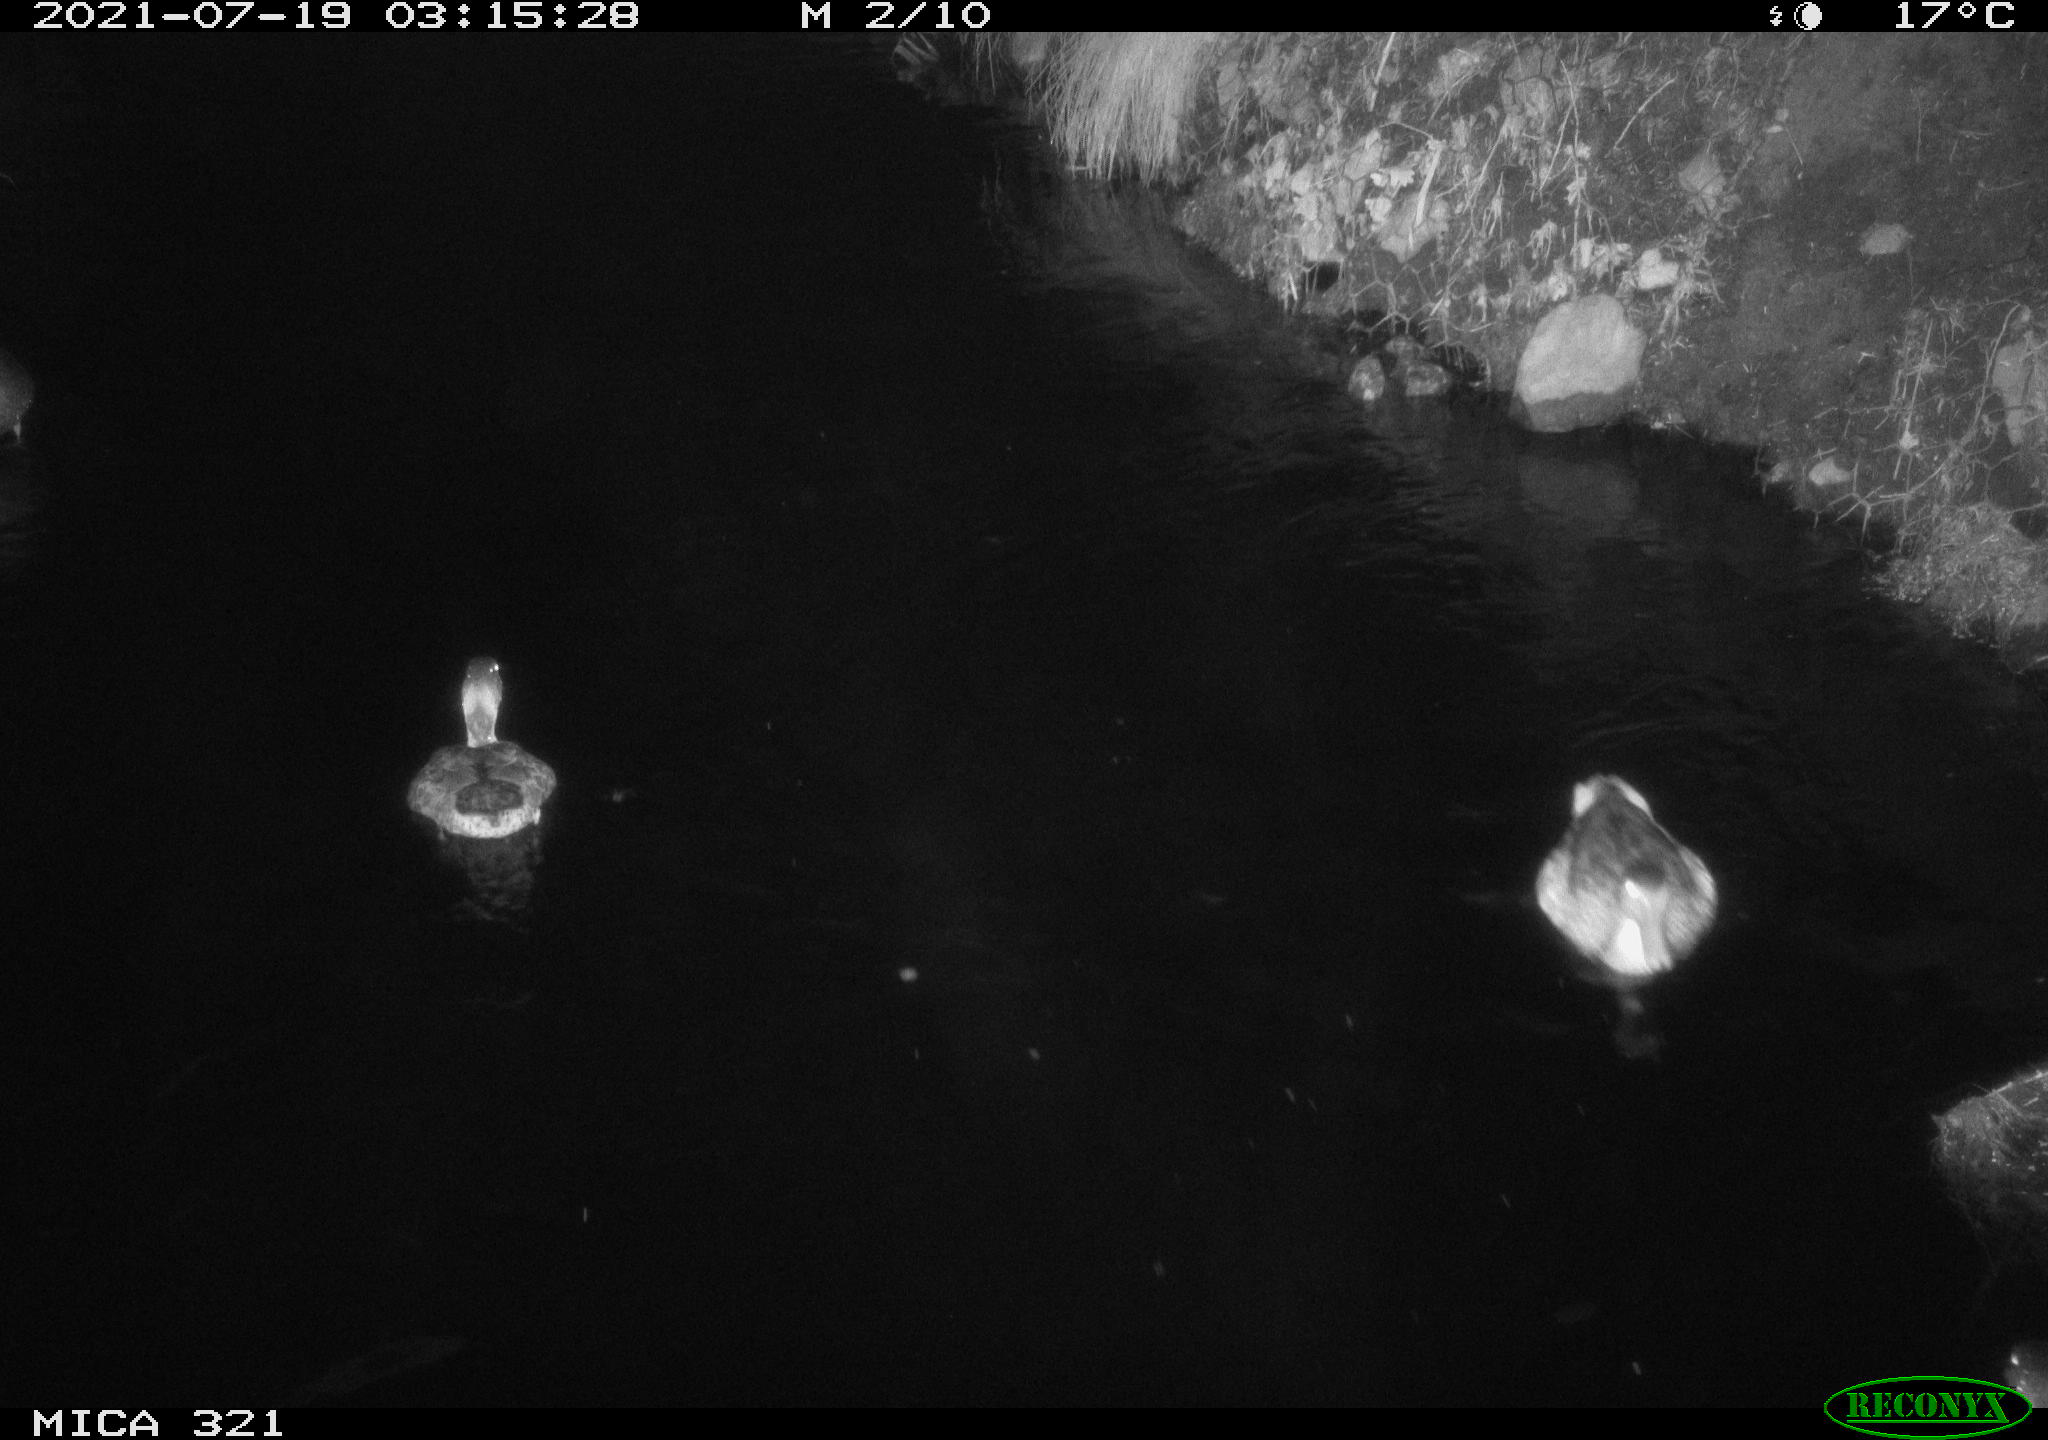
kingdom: Animalia
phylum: Chordata
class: Aves
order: Anseriformes
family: Anatidae
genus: Anas
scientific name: Anas platyrhynchos
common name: Mallard
